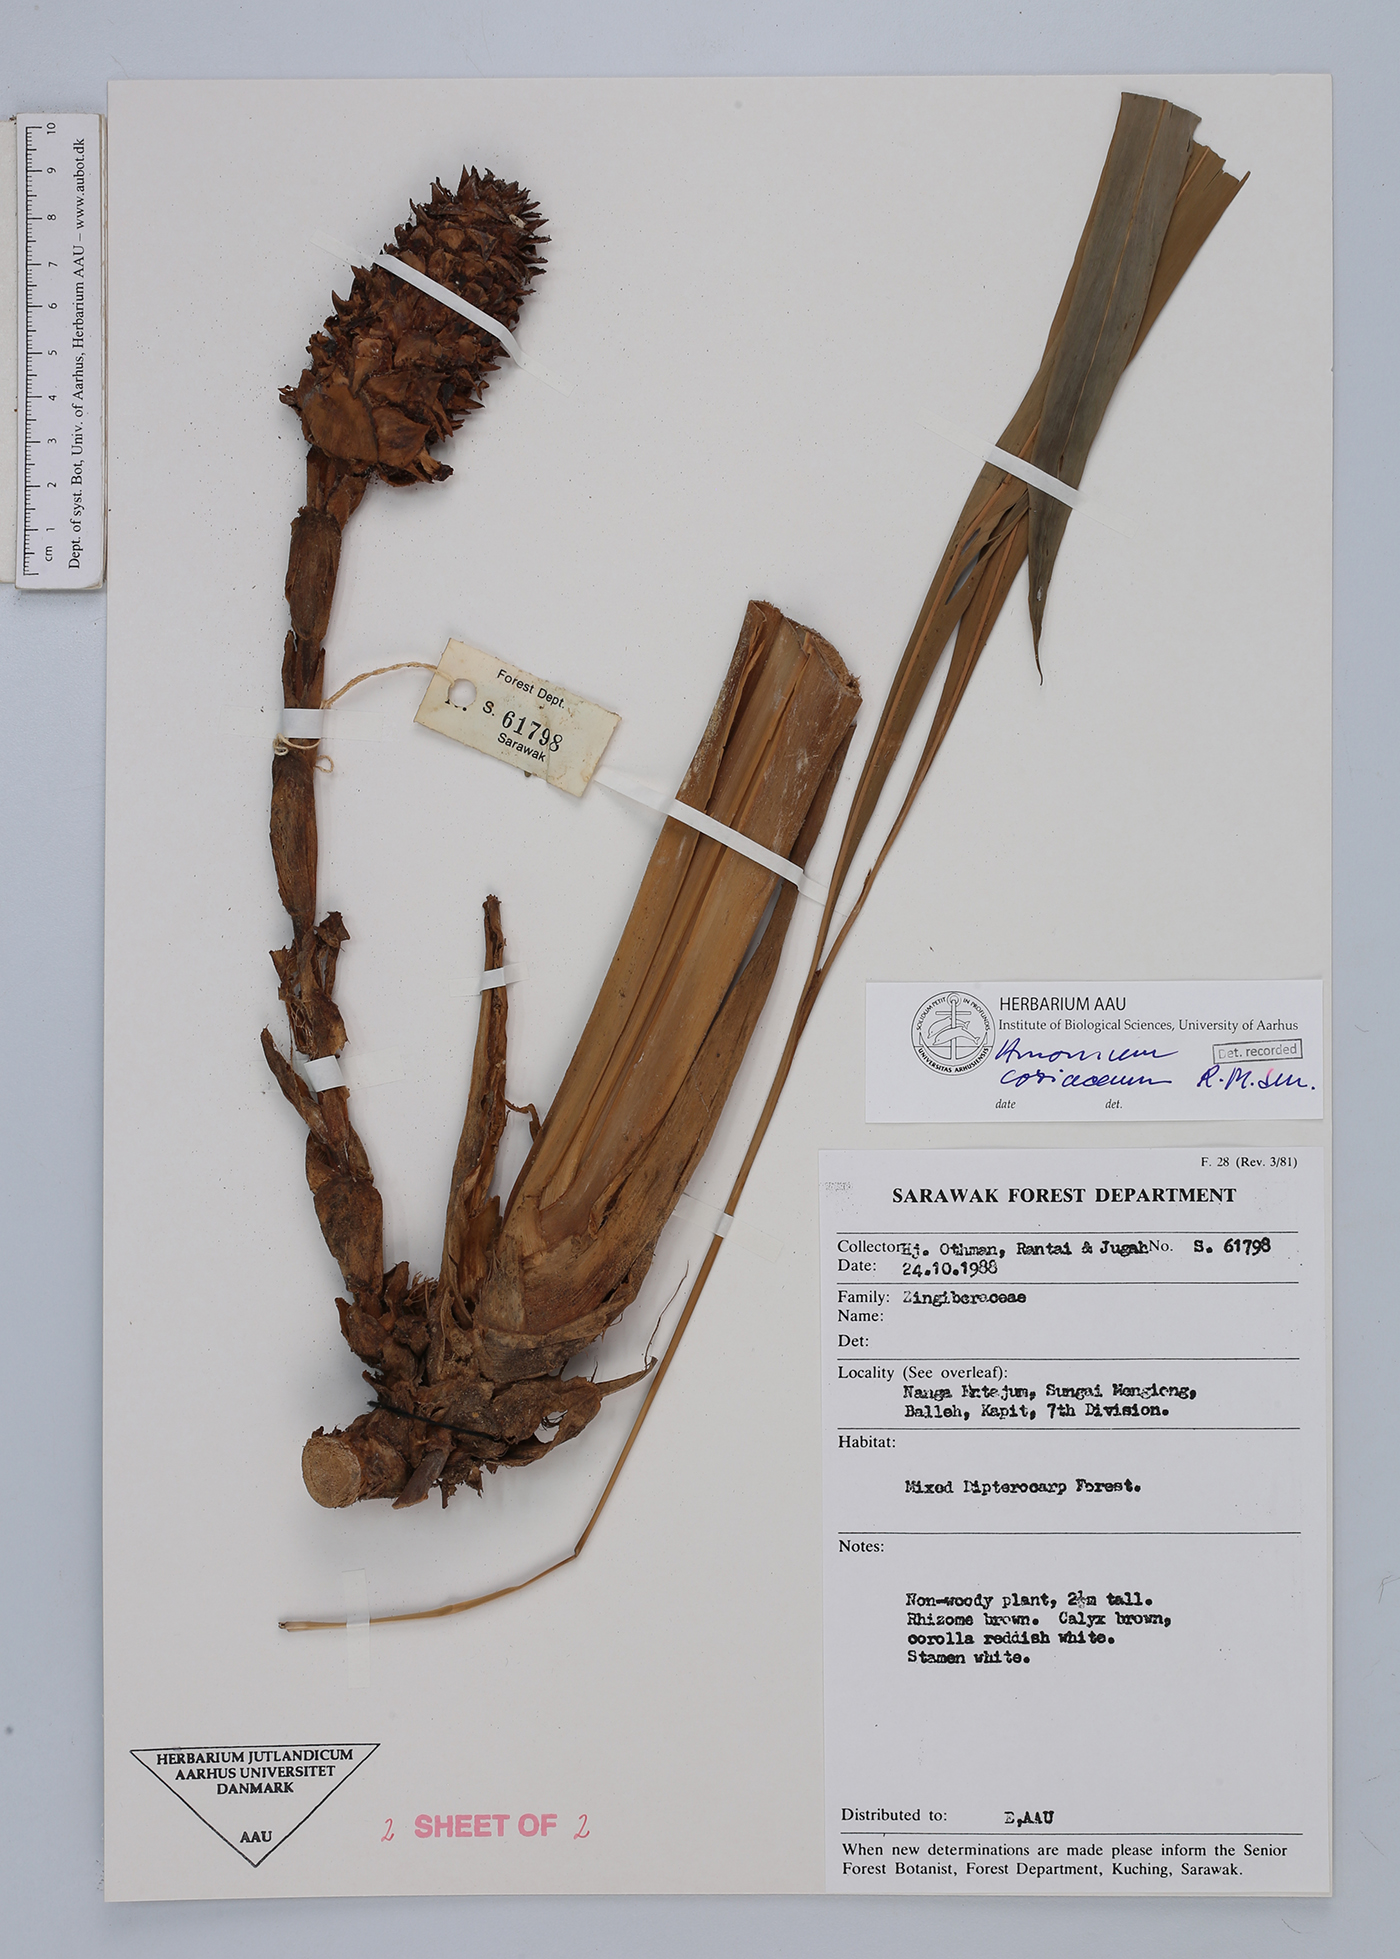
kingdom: Plantae
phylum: Tracheophyta
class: Liliopsida
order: Zingiberales
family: Zingiberaceae
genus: Conamomum
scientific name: Conamomum cylindrostachys
